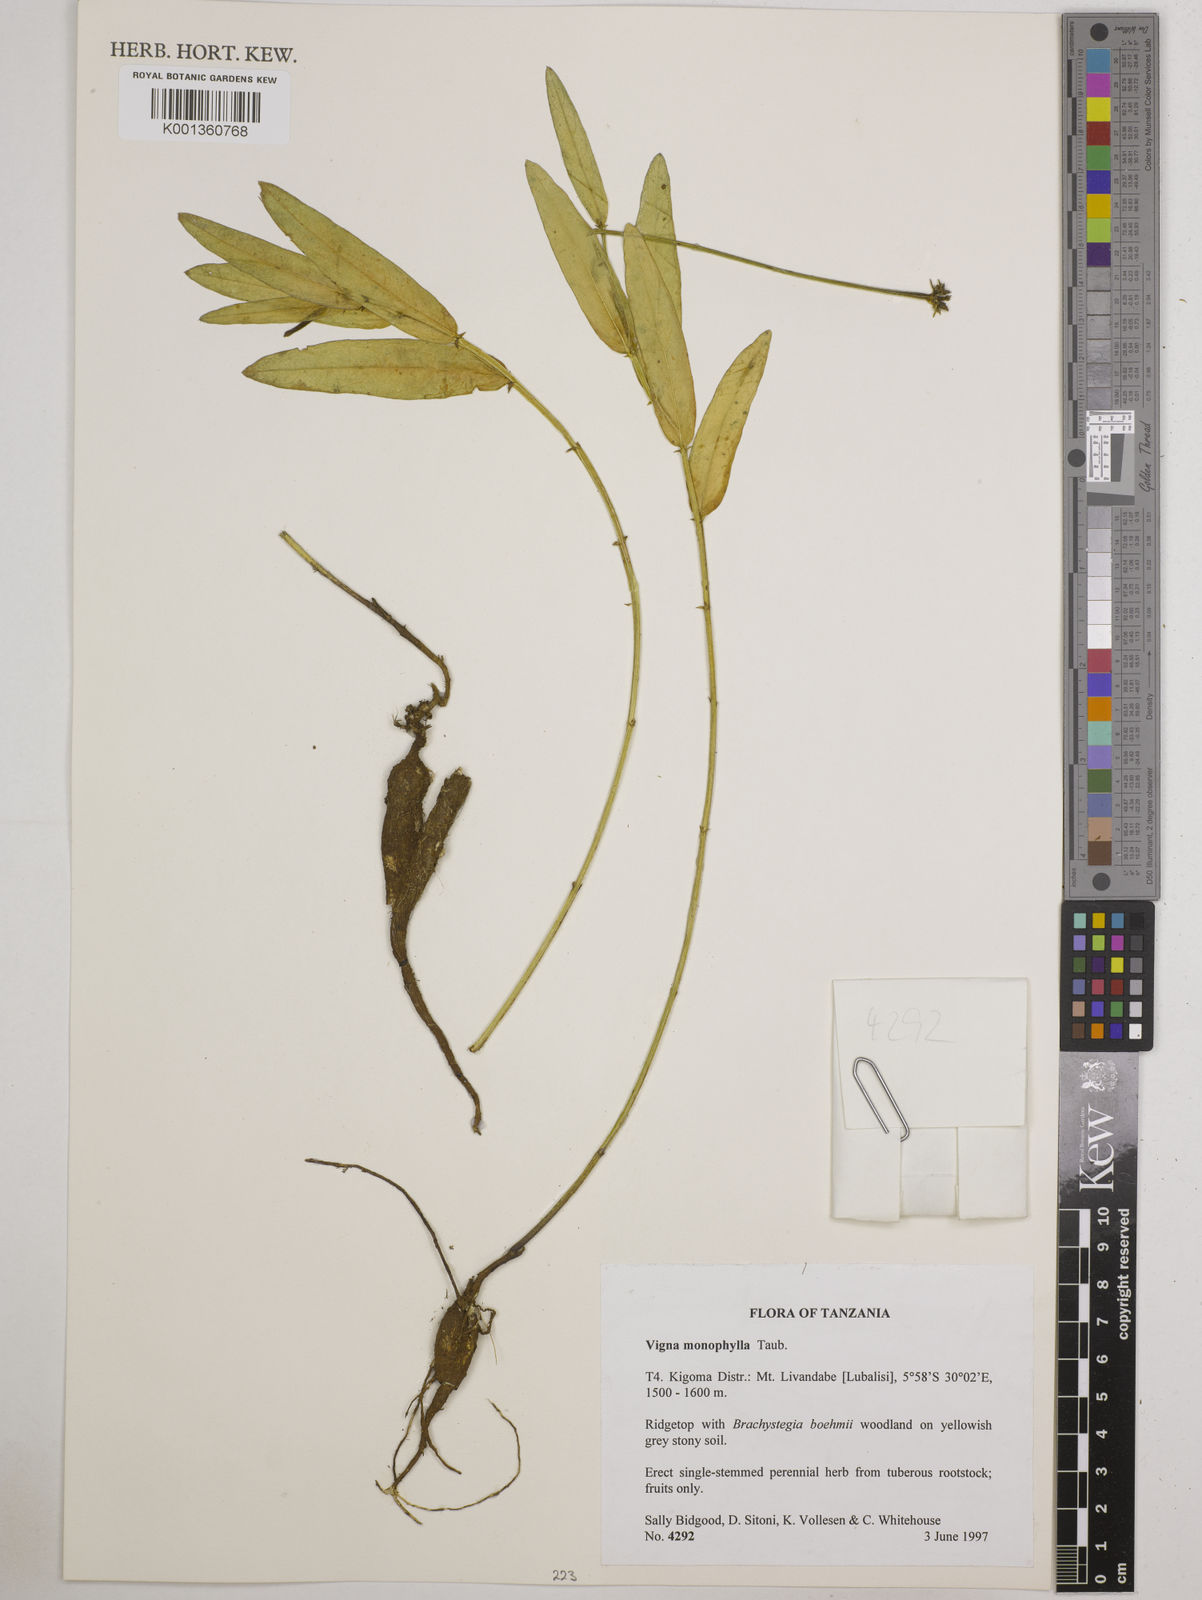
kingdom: Plantae
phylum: Tracheophyta
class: Magnoliopsida
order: Fabales
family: Fabaceae
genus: Vigna
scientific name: Vigna monophylla
